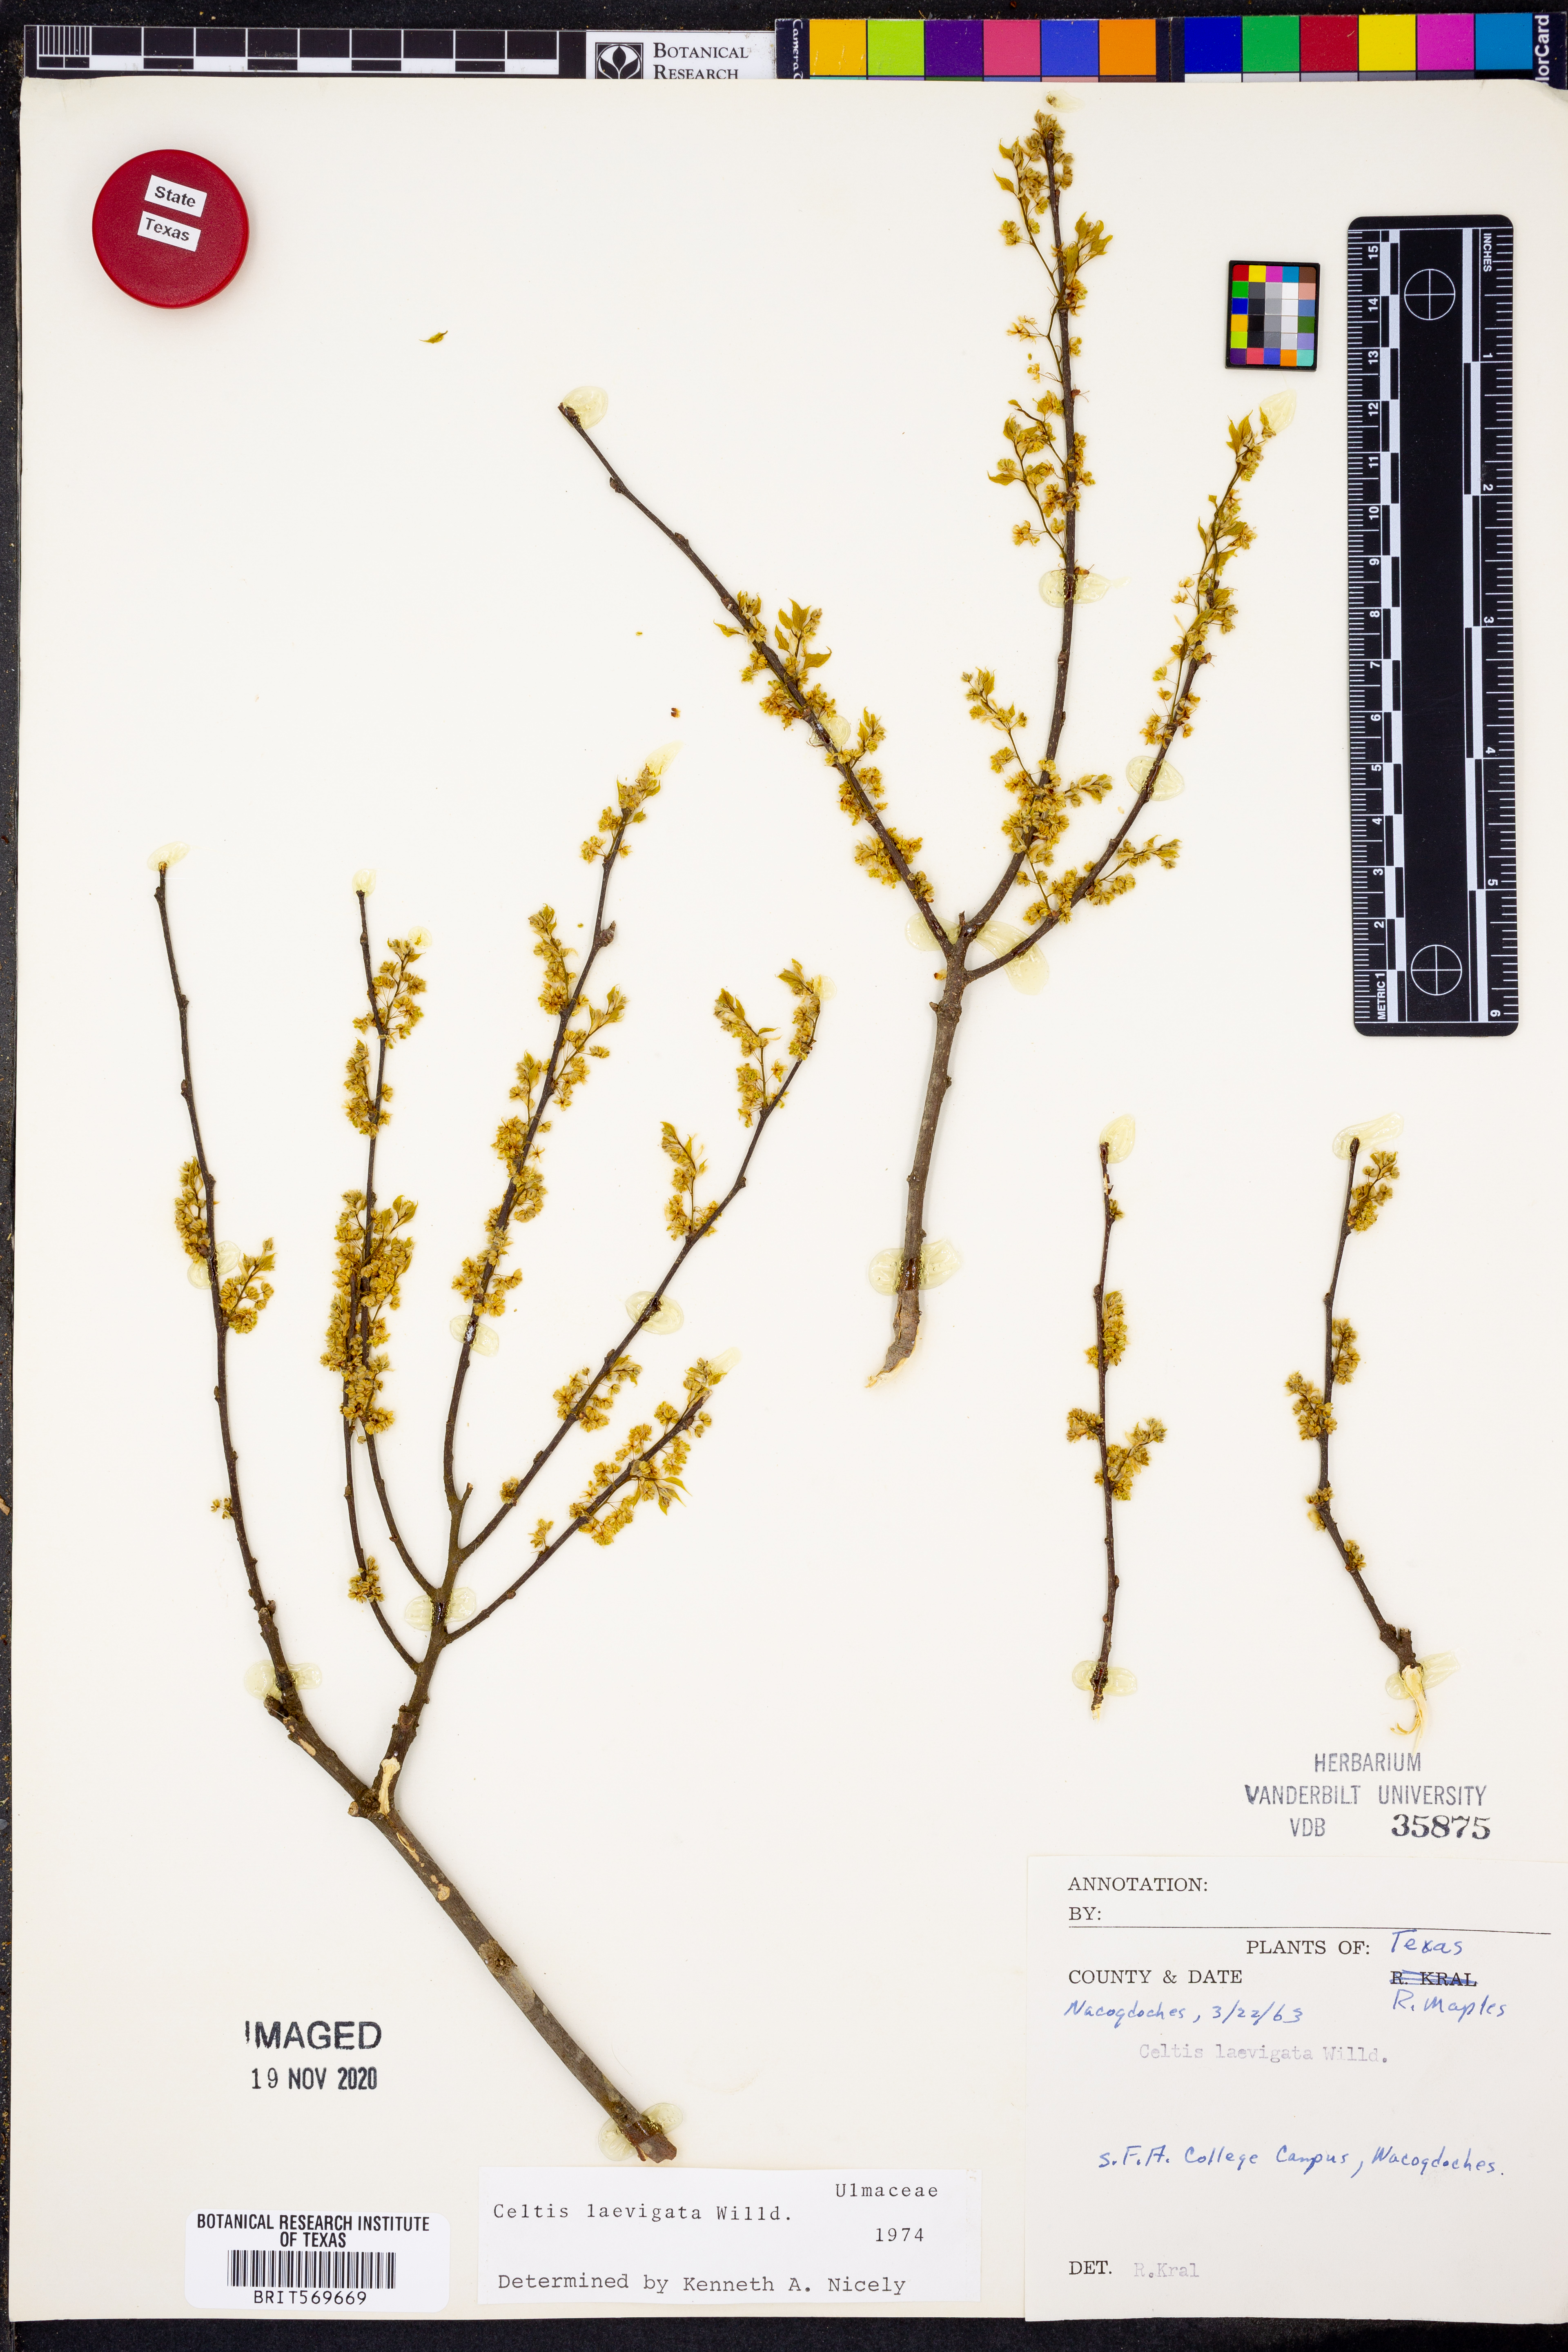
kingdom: Plantae
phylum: Tracheophyta
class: Magnoliopsida
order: Rosales
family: Cannabaceae
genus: Celtis
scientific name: Celtis laevigata
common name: Sugarberry
